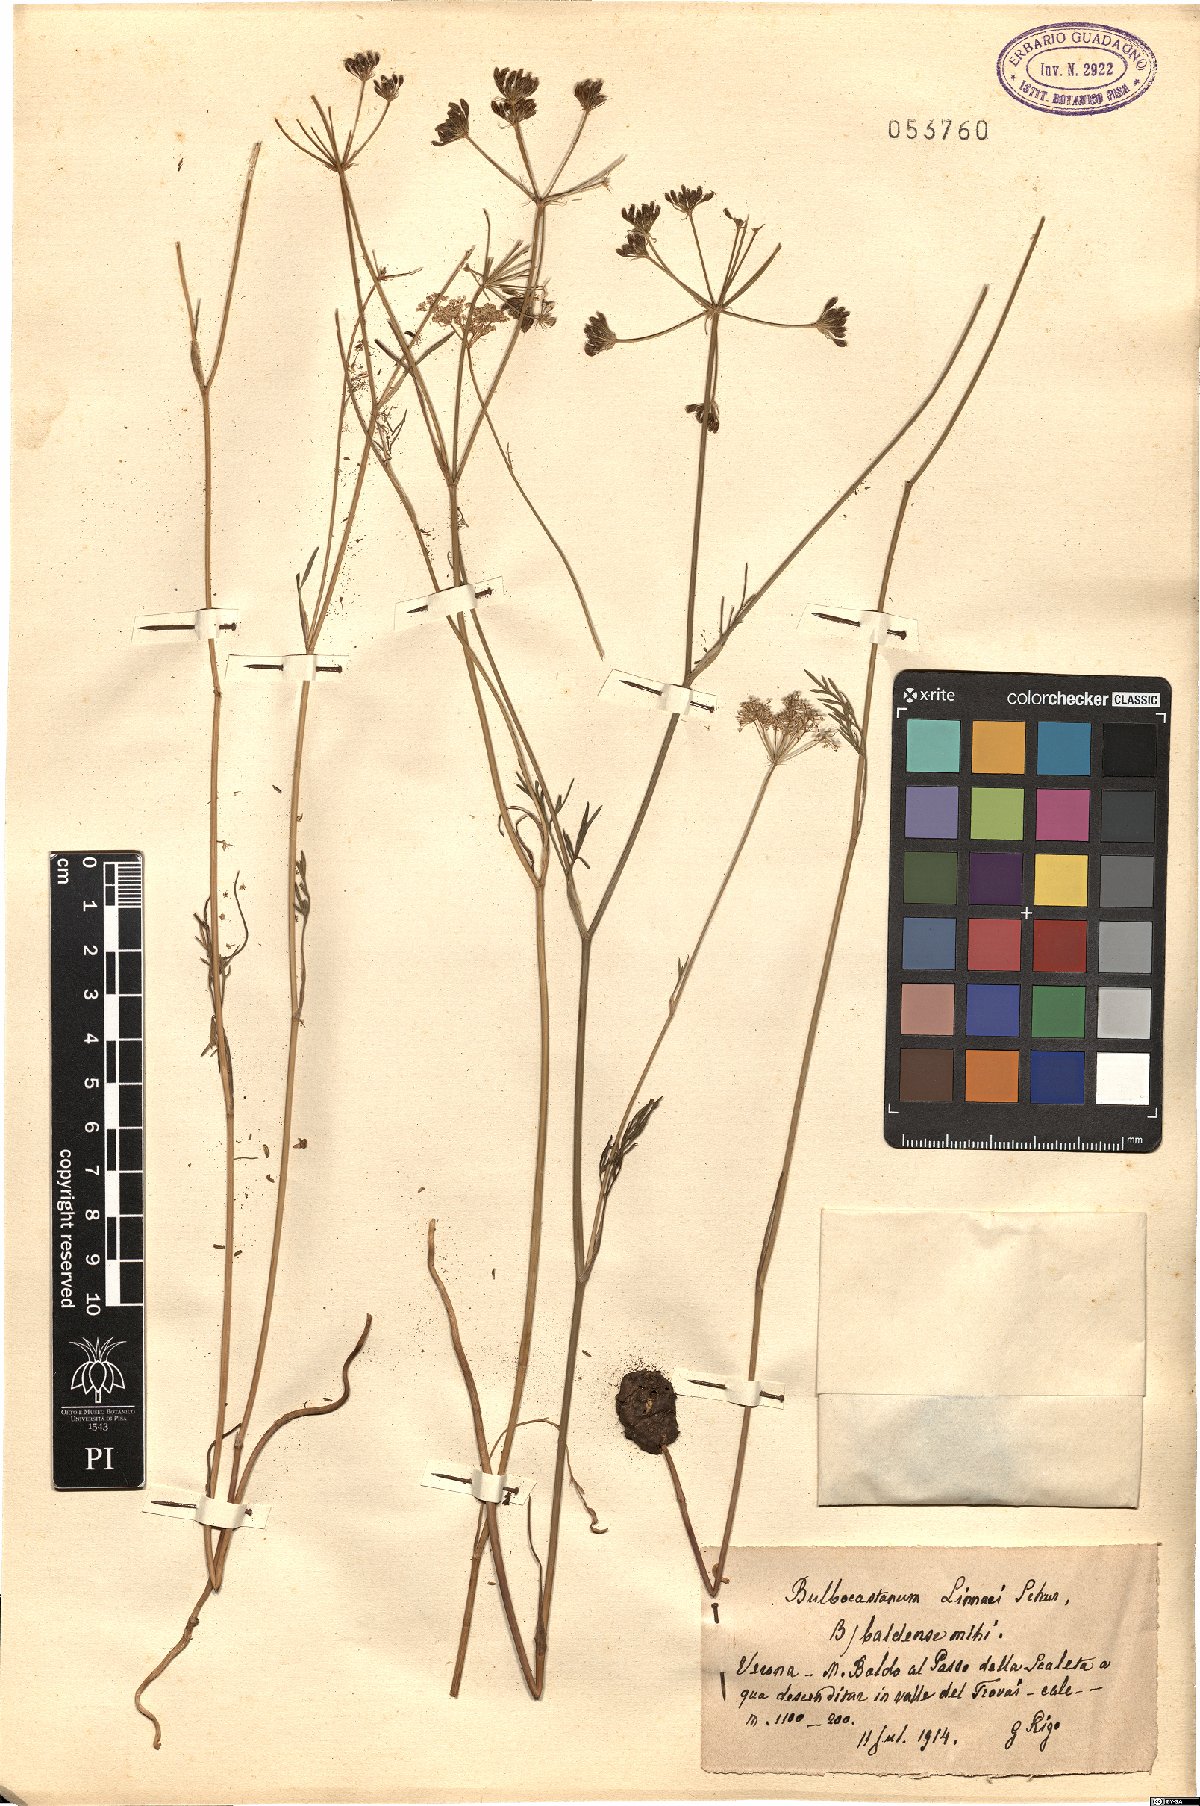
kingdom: Plantae
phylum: Tracheophyta
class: Magnoliopsida
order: Apiales
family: Apiaceae
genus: Bunium
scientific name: Bunium bulbocastanum
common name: Great pignut
